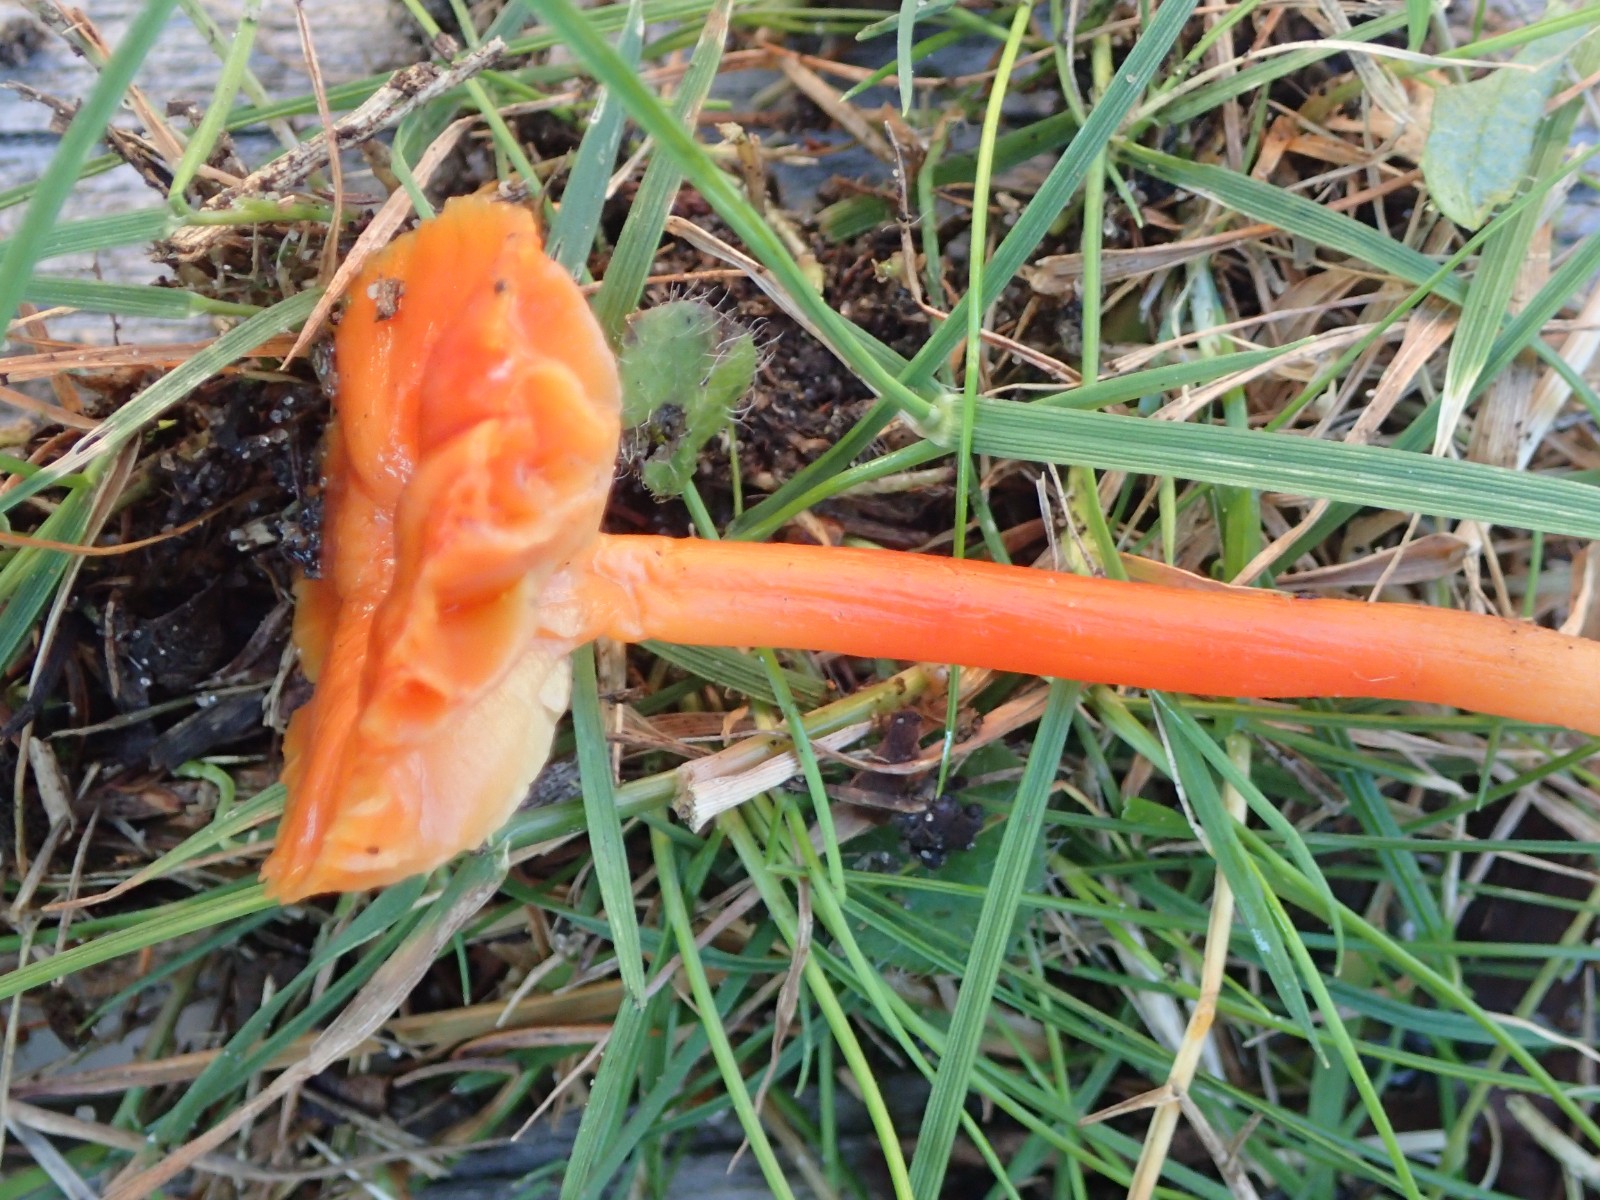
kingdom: Fungi
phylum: Basidiomycota
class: Agaricomycetes
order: Agaricales
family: Hygrophoraceae
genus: Hygrocybe
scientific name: Hygrocybe cantharellus
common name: kantarel-vokshat
